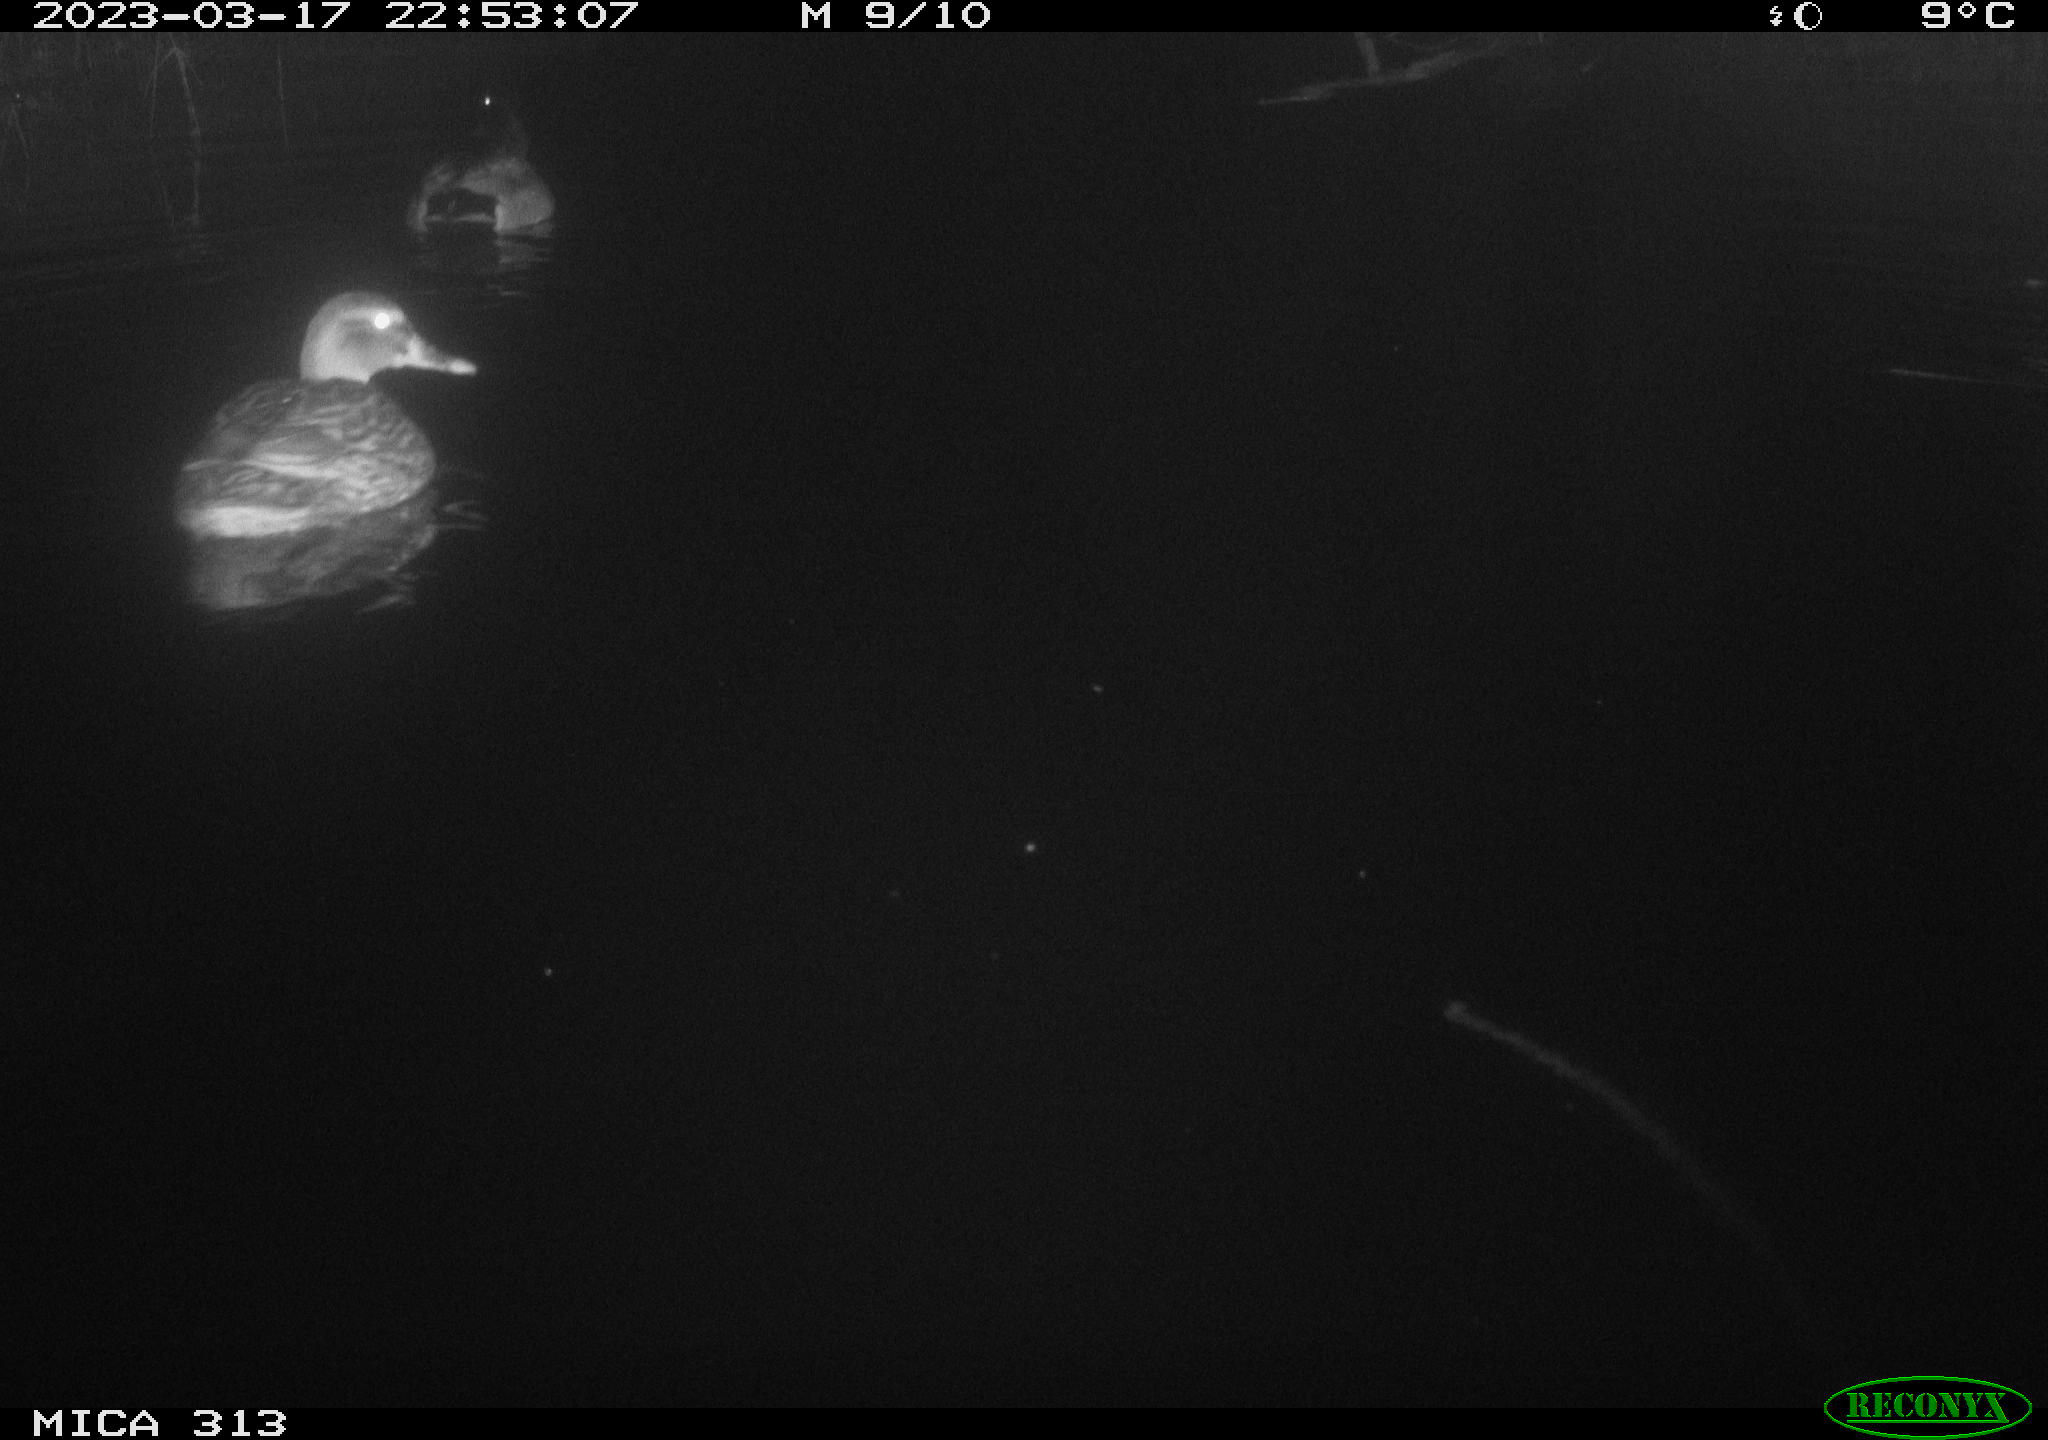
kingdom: Animalia
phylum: Chordata
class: Aves
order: Anseriformes
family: Anatidae
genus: Anas
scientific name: Anas
